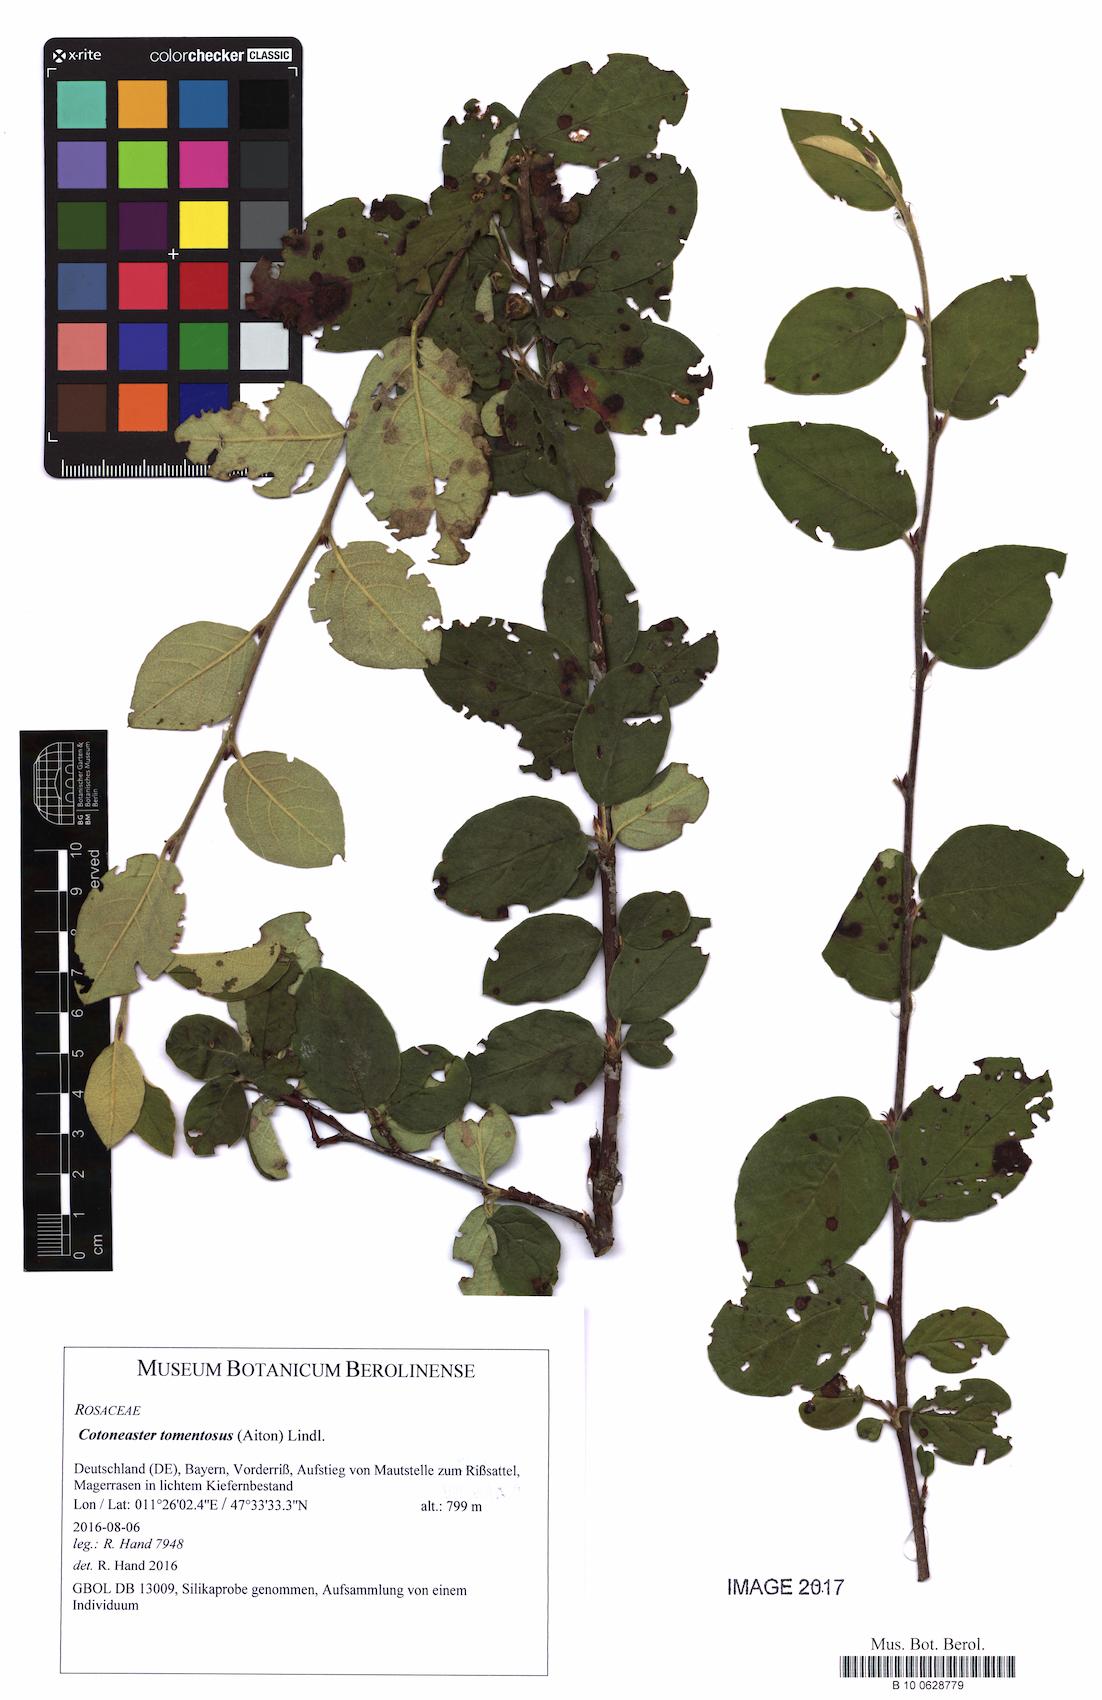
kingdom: Plantae
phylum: Tracheophyta
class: Magnoliopsida
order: Rosales
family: Rosaceae
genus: Cotoneaster
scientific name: Cotoneaster tomentosus
